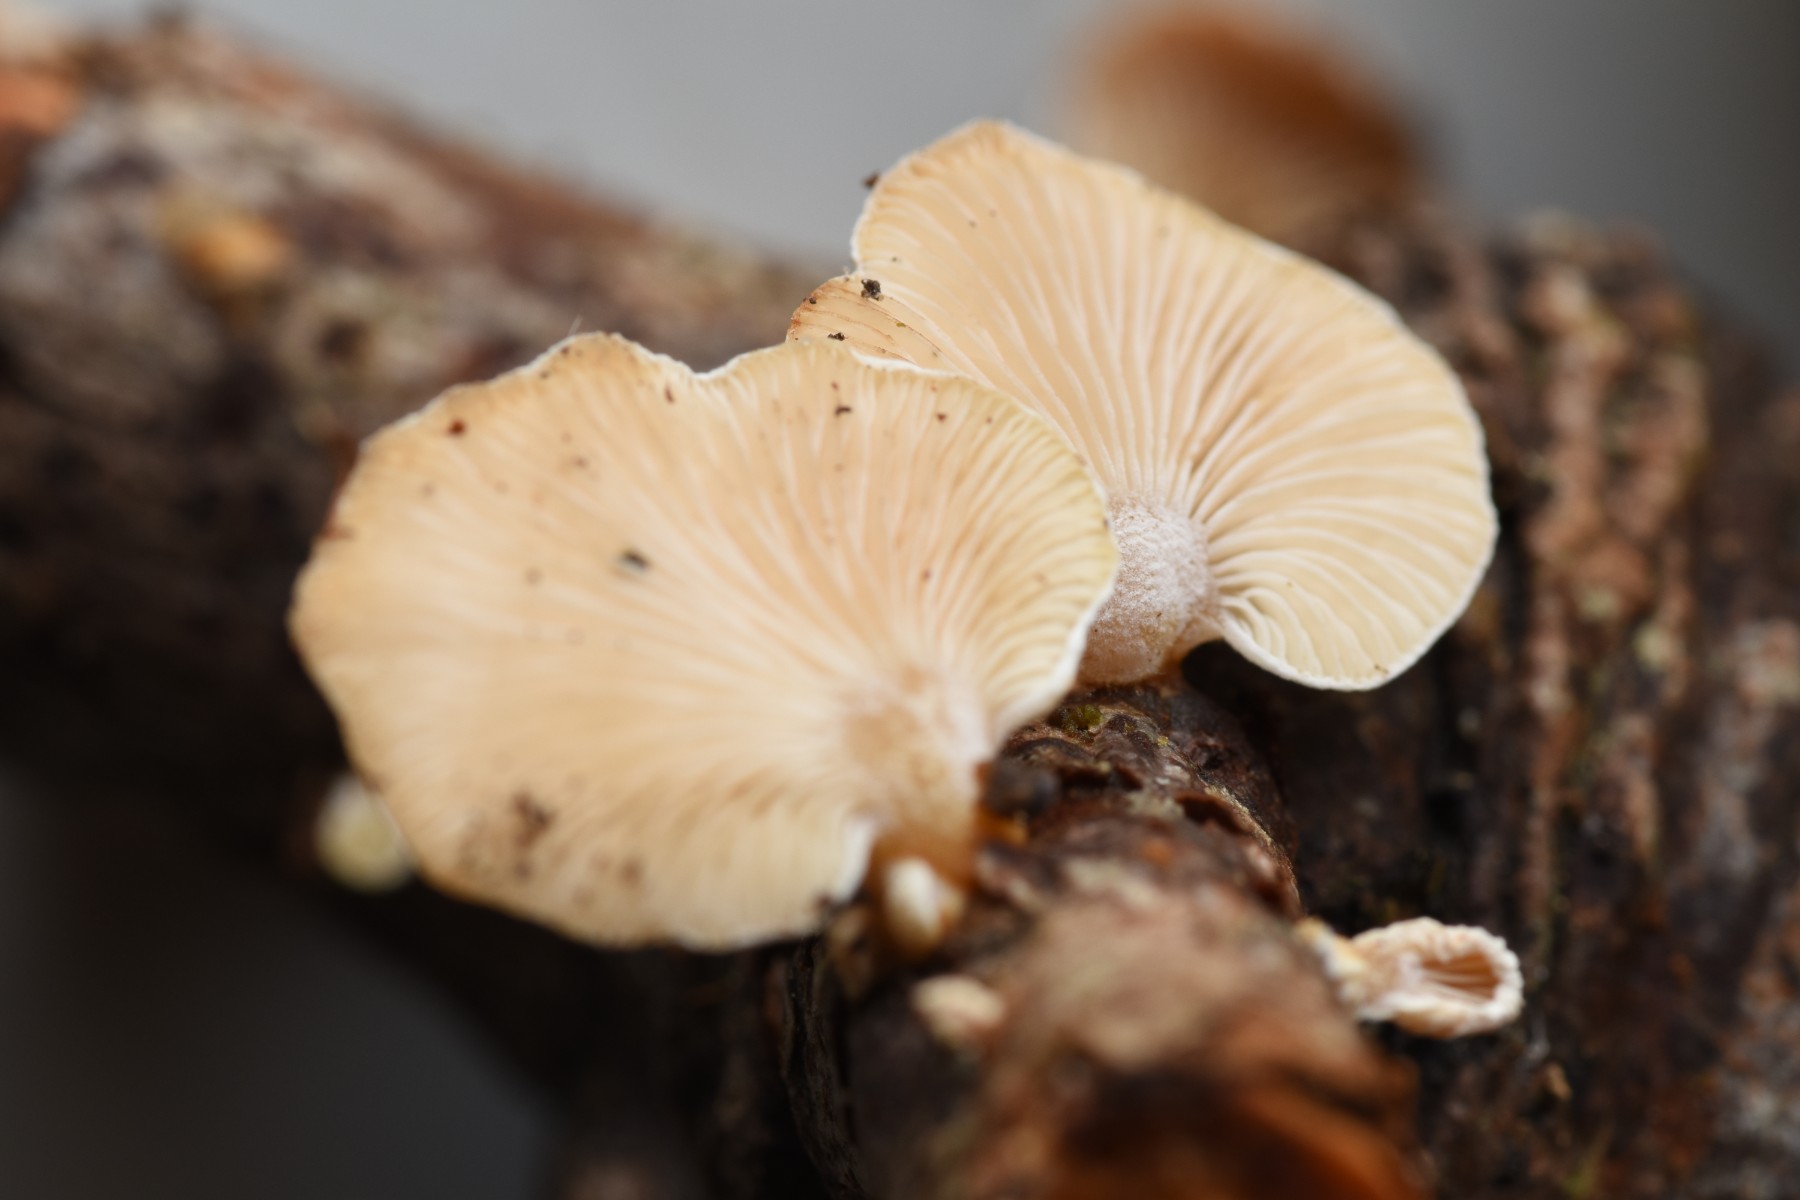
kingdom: Fungi
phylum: Basidiomycota
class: Agaricomycetes
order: Agaricales
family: Mycenaceae
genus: Panellus
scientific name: Panellus mitis
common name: mild epaulethat
